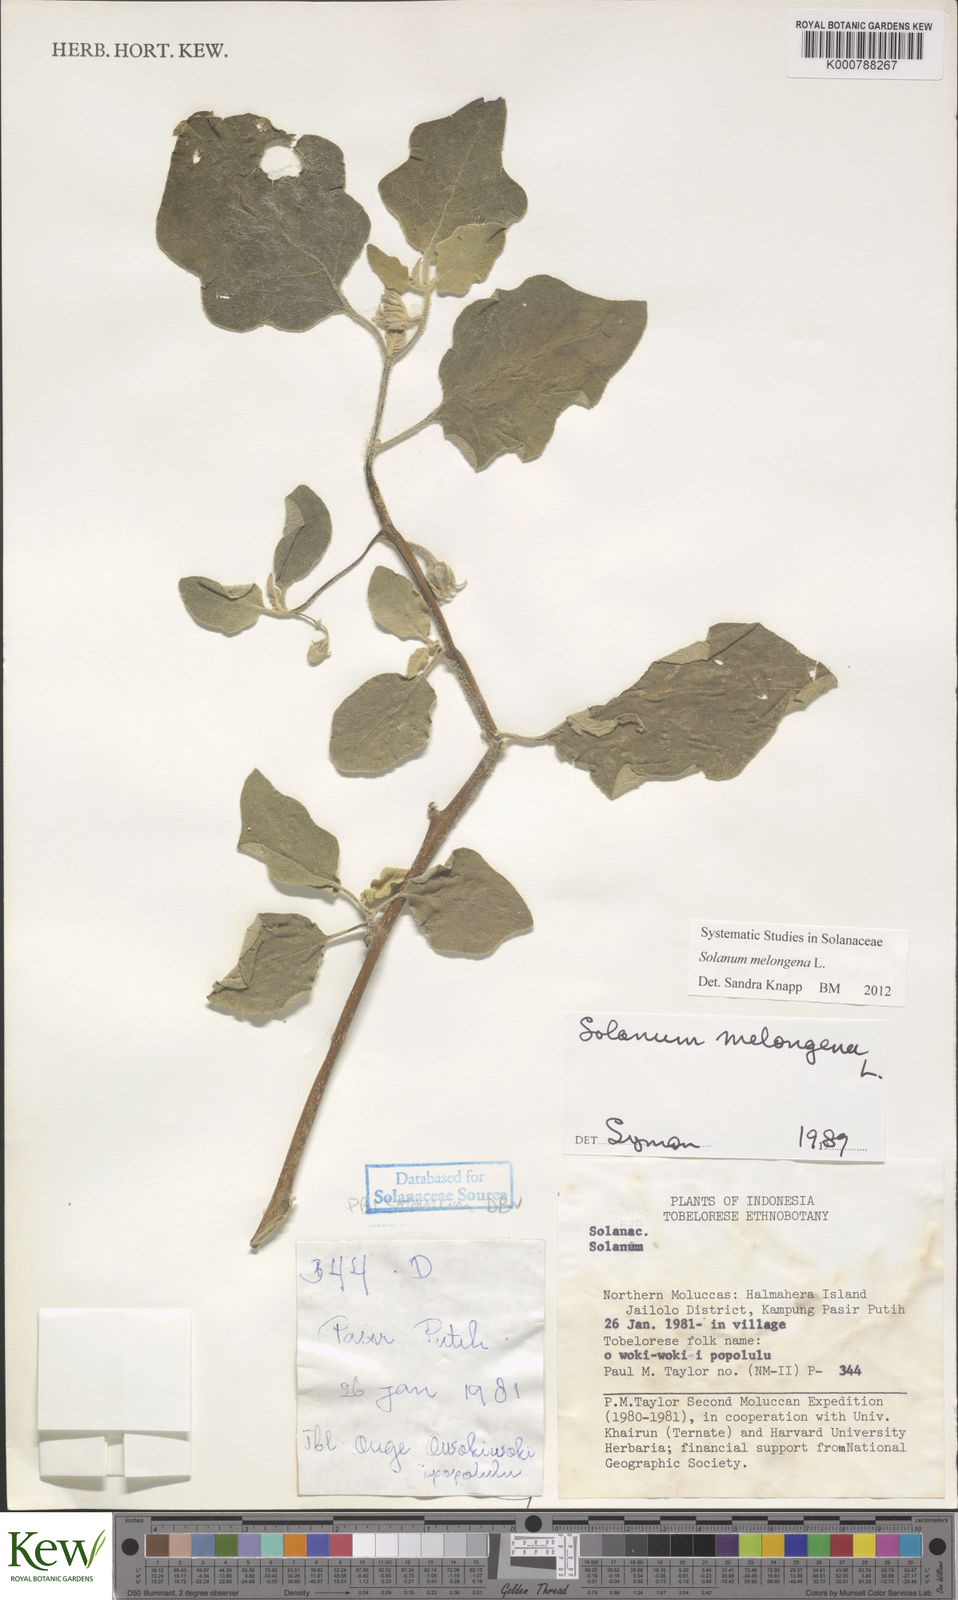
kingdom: Plantae
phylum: Tracheophyta
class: Magnoliopsida
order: Solanales
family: Solanaceae
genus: Solanum
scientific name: Solanum melongena
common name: Eggplant
